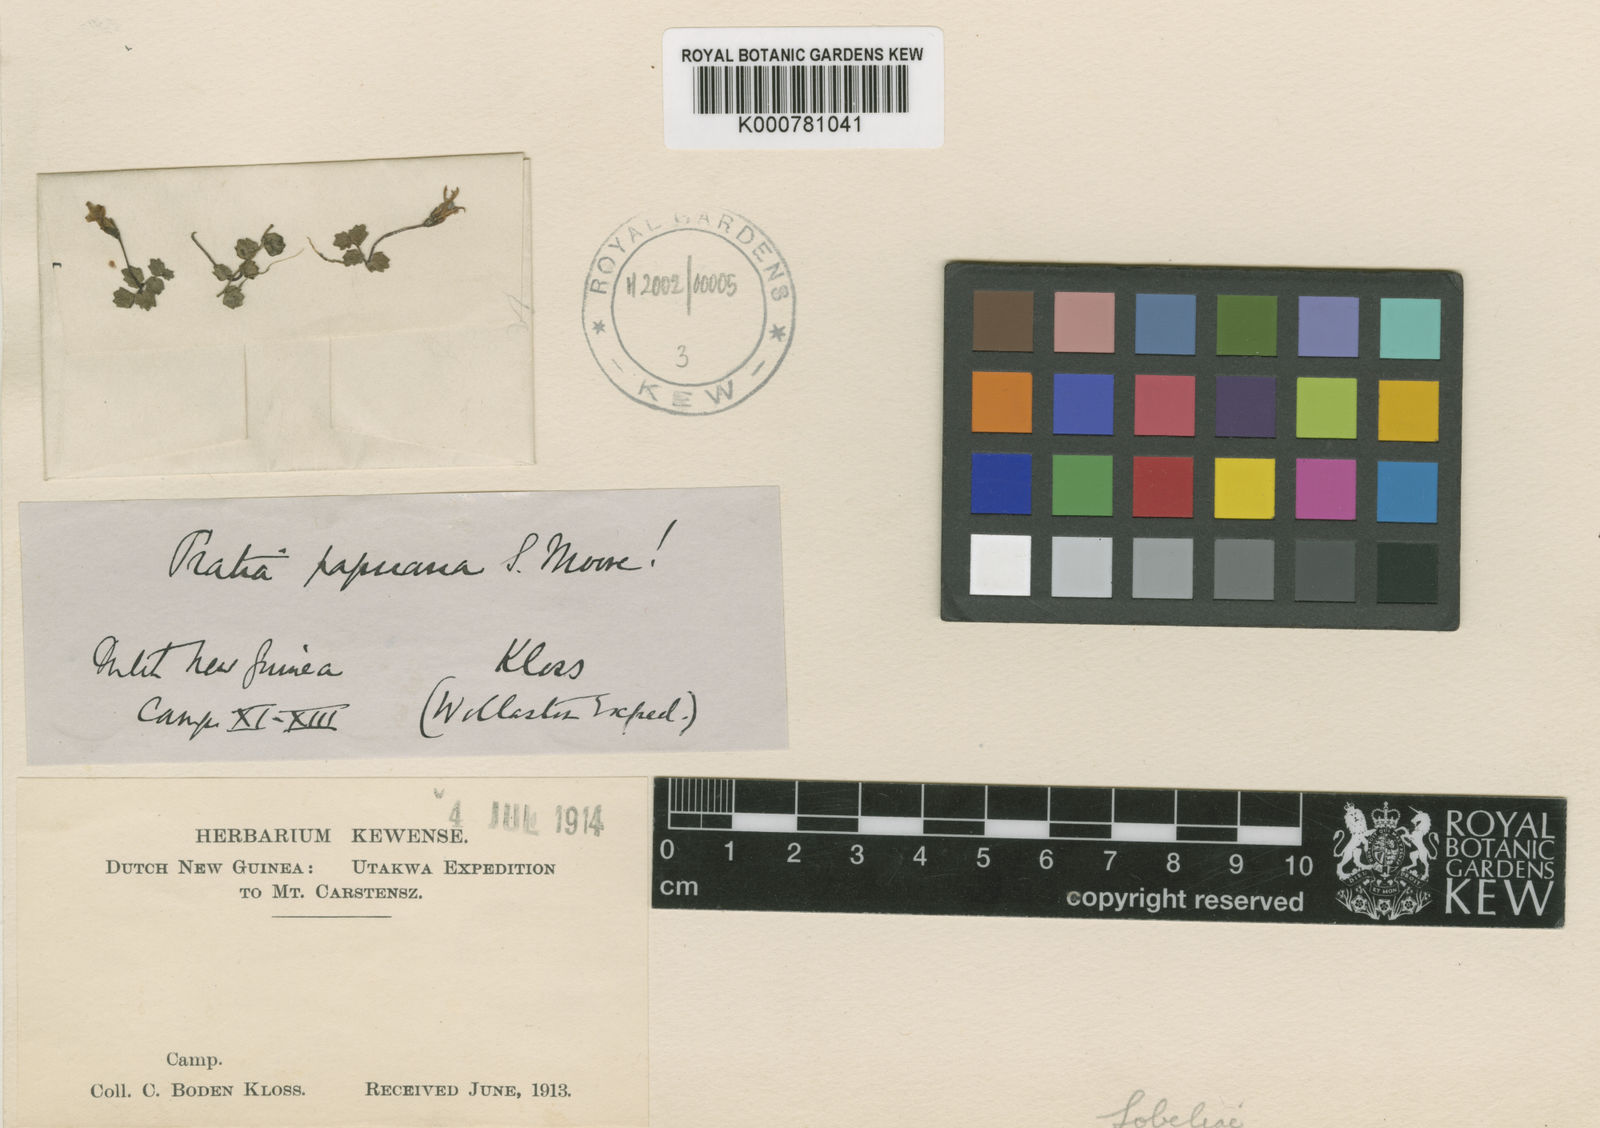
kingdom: Plantae
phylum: Tracheophyta
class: Magnoliopsida
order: Asterales
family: Campanulaceae
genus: Lobelia
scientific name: Lobelia angulata
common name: Lawn lobelia
